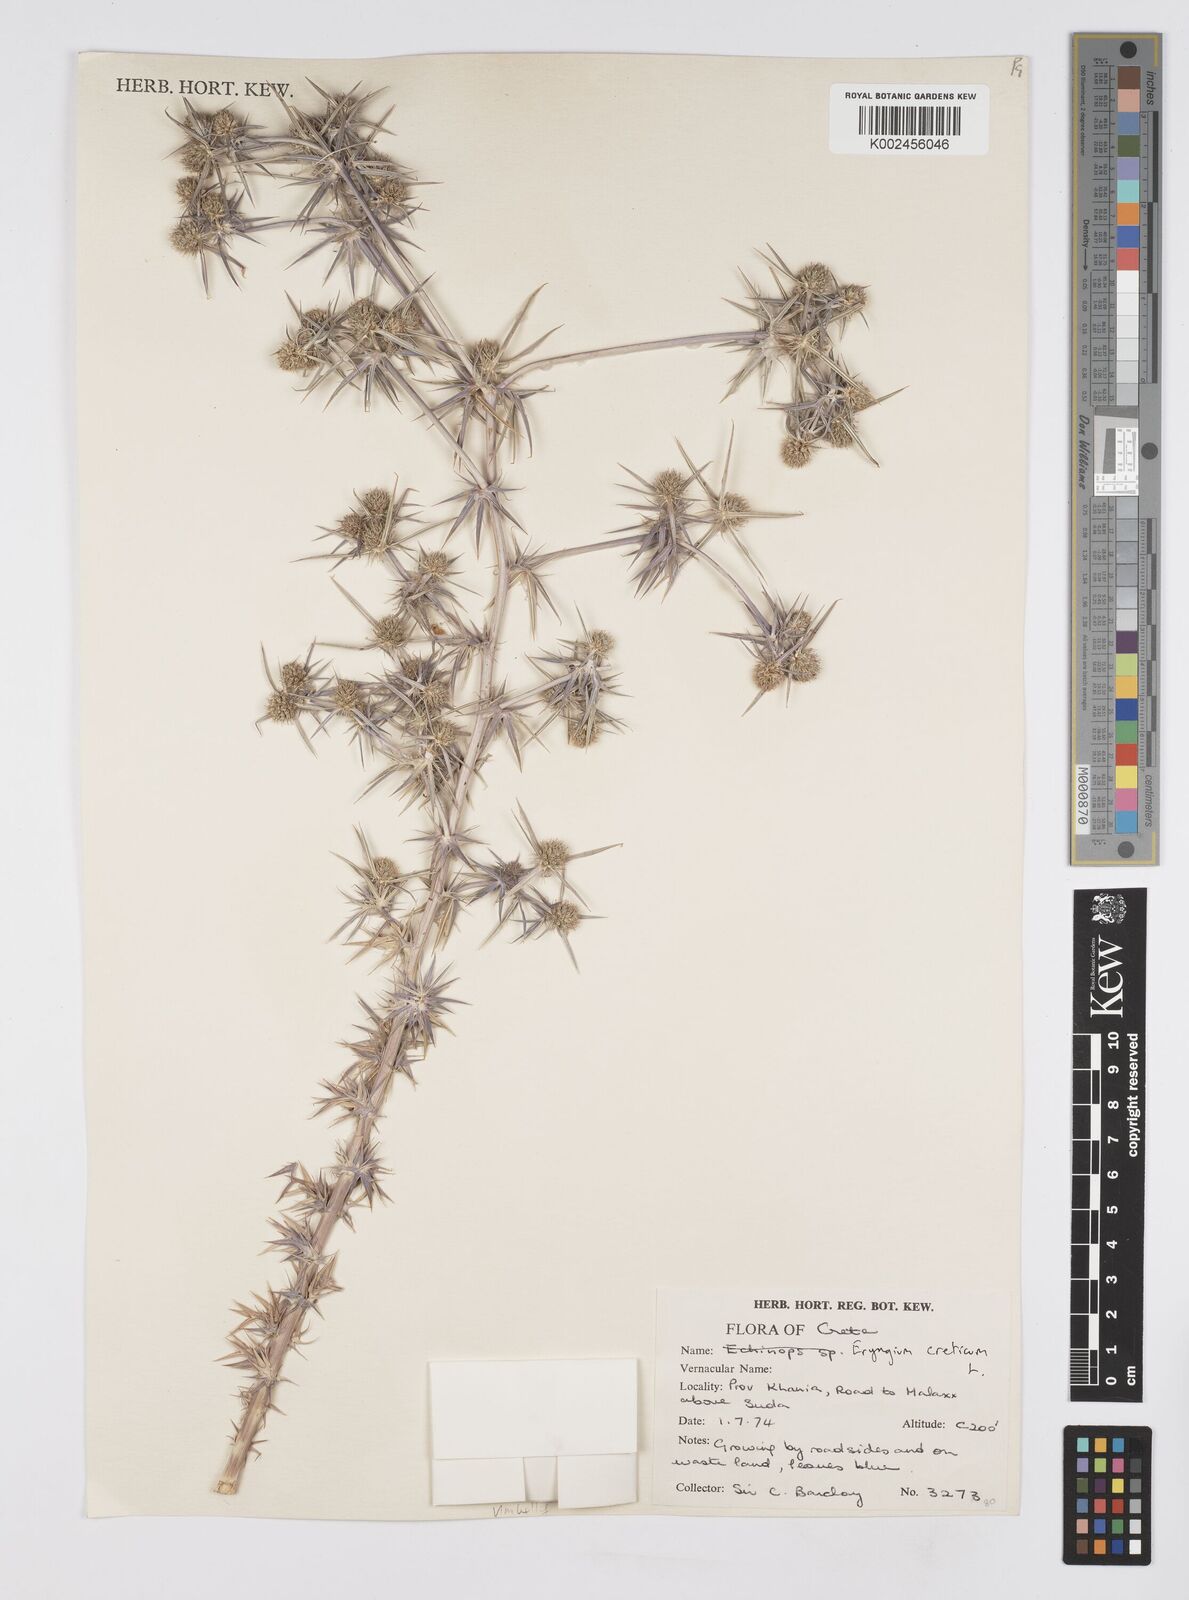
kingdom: Plantae
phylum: Tracheophyta
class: Magnoliopsida
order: Apiales
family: Apiaceae
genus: Eryngium
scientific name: Eryngium creticum
